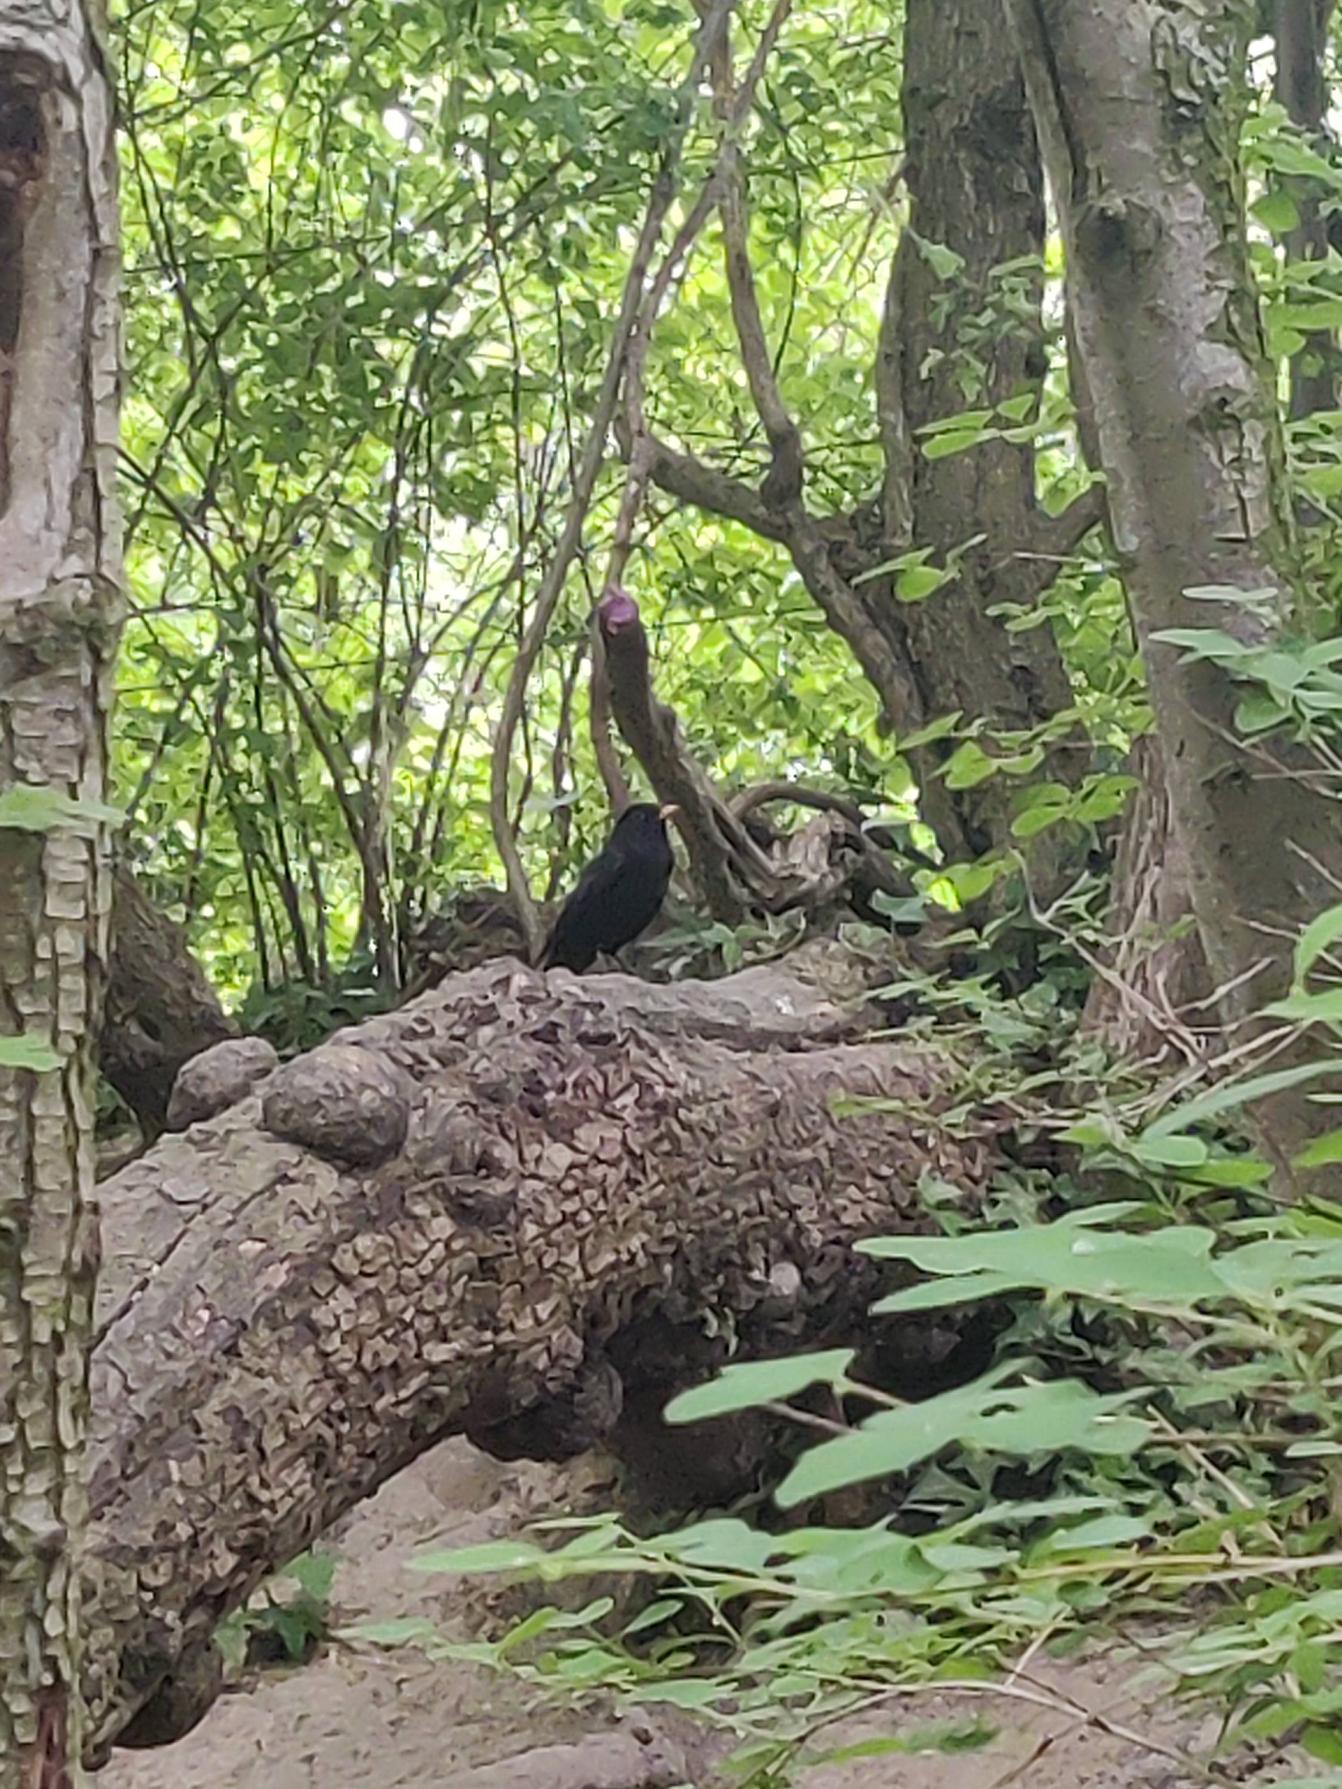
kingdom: Animalia
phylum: Chordata
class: Aves
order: Passeriformes
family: Turdidae
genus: Turdus
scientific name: Turdus merula
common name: Solsort
